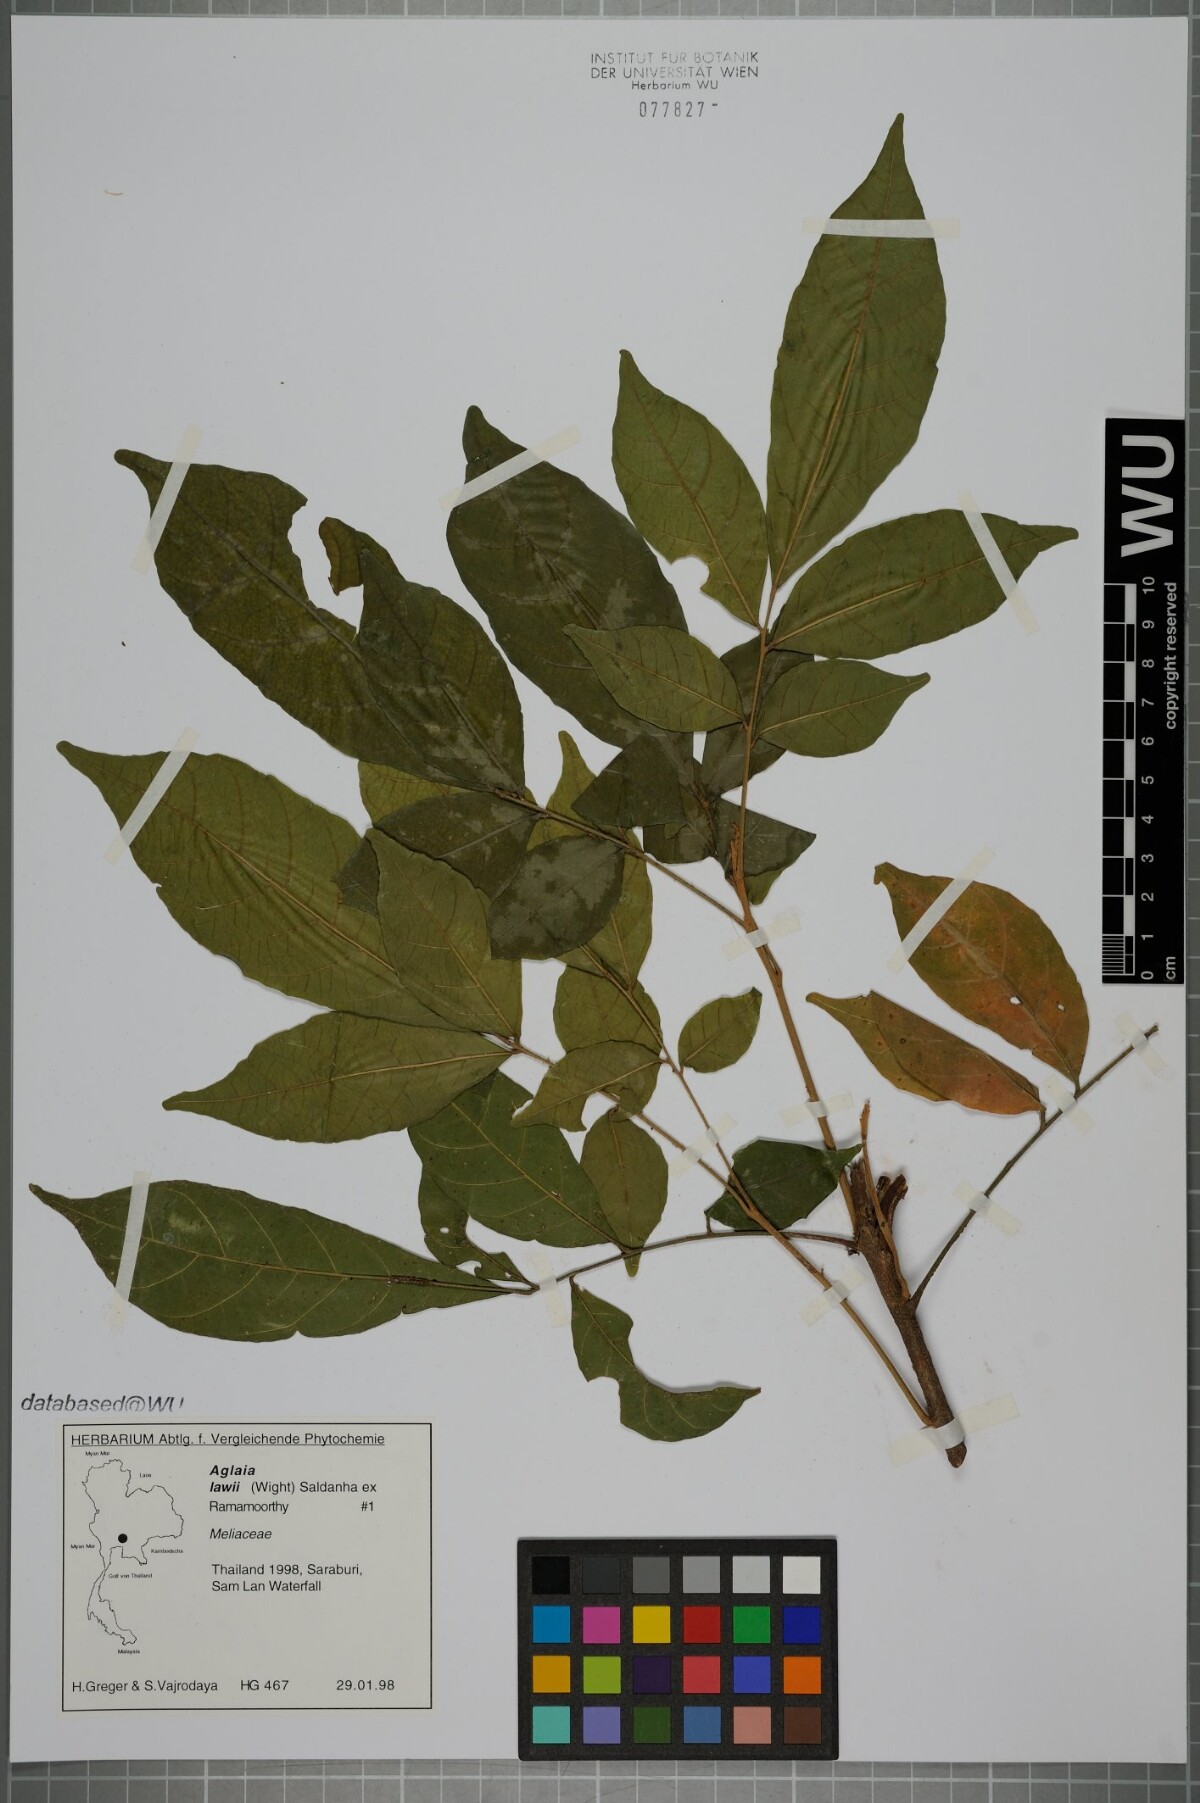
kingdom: Plantae
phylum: Tracheophyta
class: Magnoliopsida
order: Sapindales
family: Meliaceae
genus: Aglaia
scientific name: Aglaia lawii
